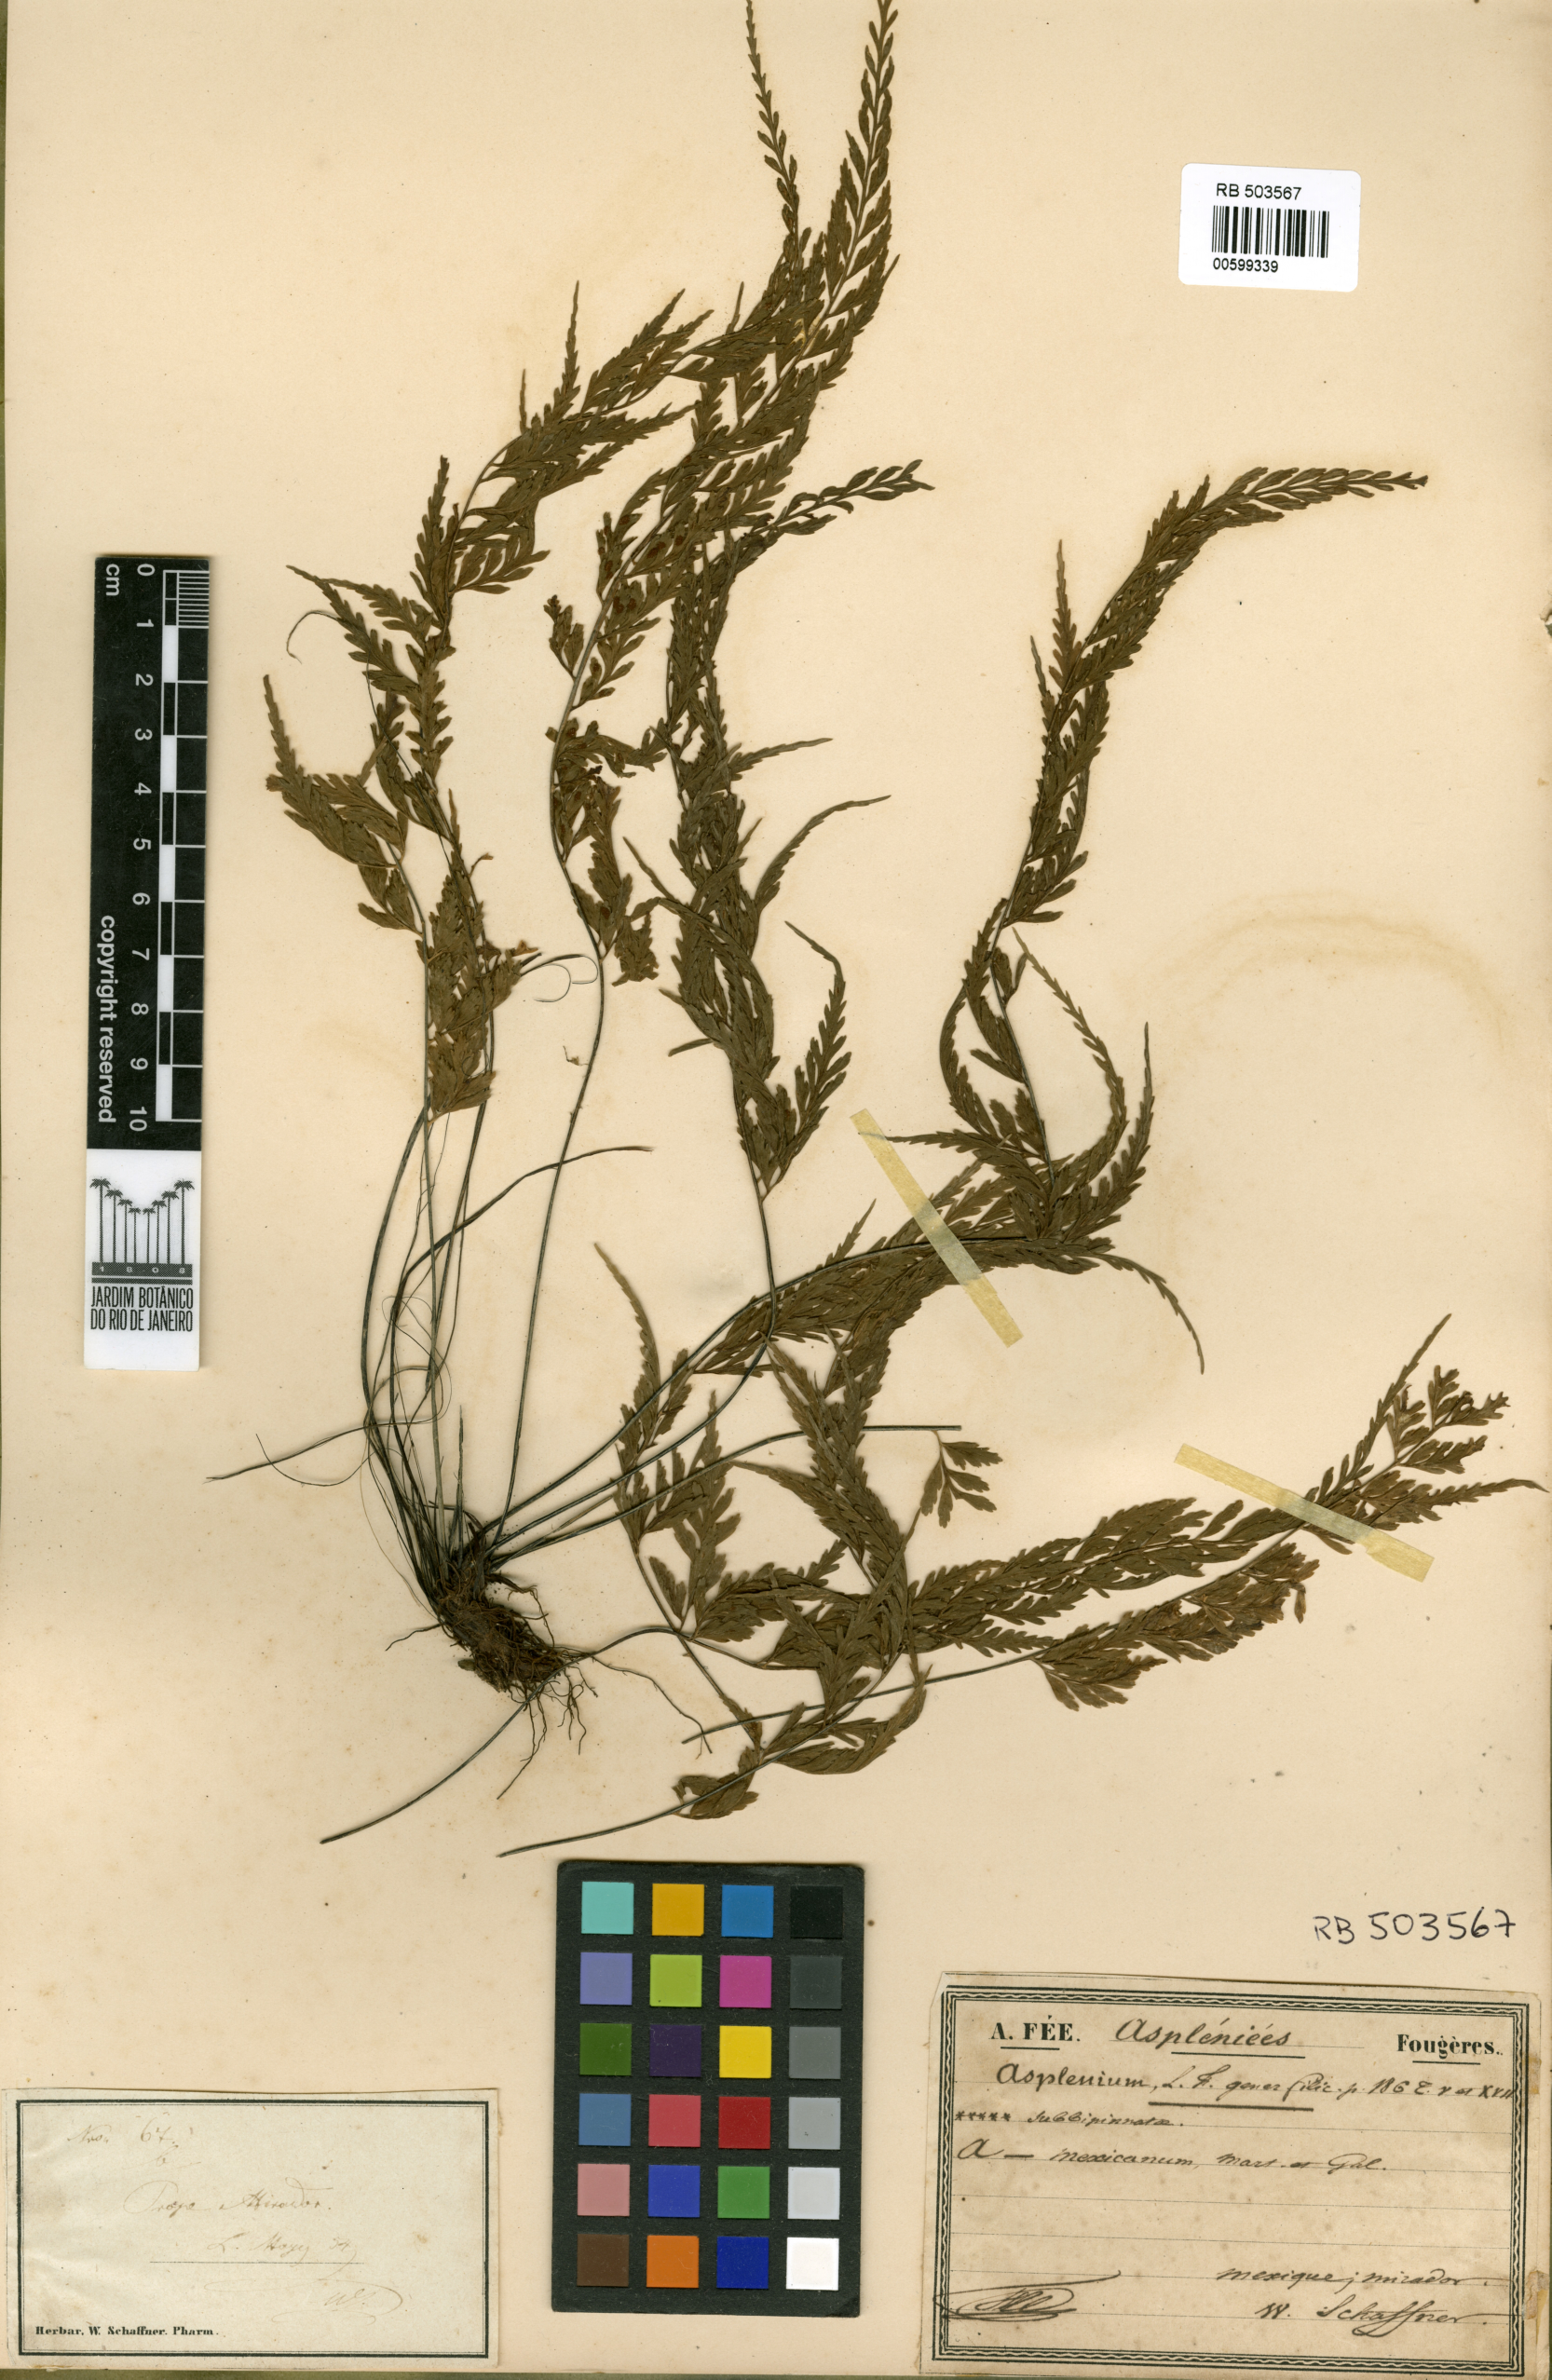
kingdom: Plantae
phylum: Tracheophyta
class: Polypodiopsida
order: Polypodiales
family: Aspleniaceae
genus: Asplenium
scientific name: Asplenium cuspidatum
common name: Eared spleenwort
